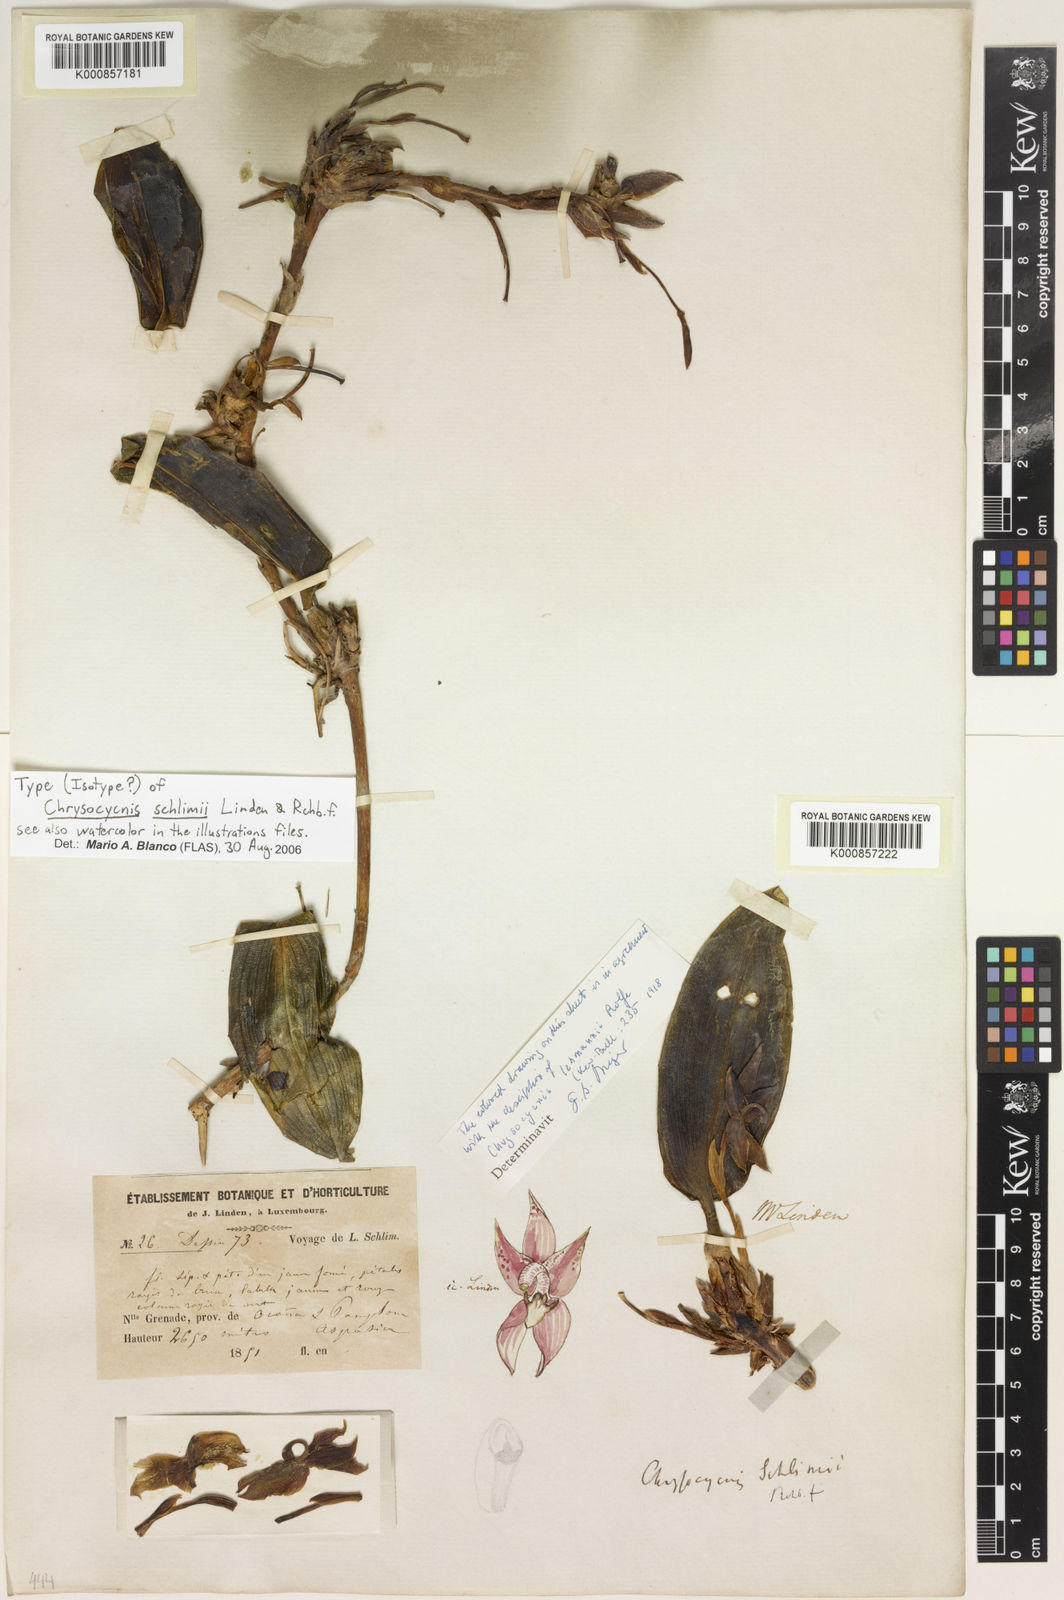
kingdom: Plantae
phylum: Tracheophyta
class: Liliopsida
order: Asparagales
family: Orchidaceae
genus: Maxillaria
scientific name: Maxillaria schlimii
